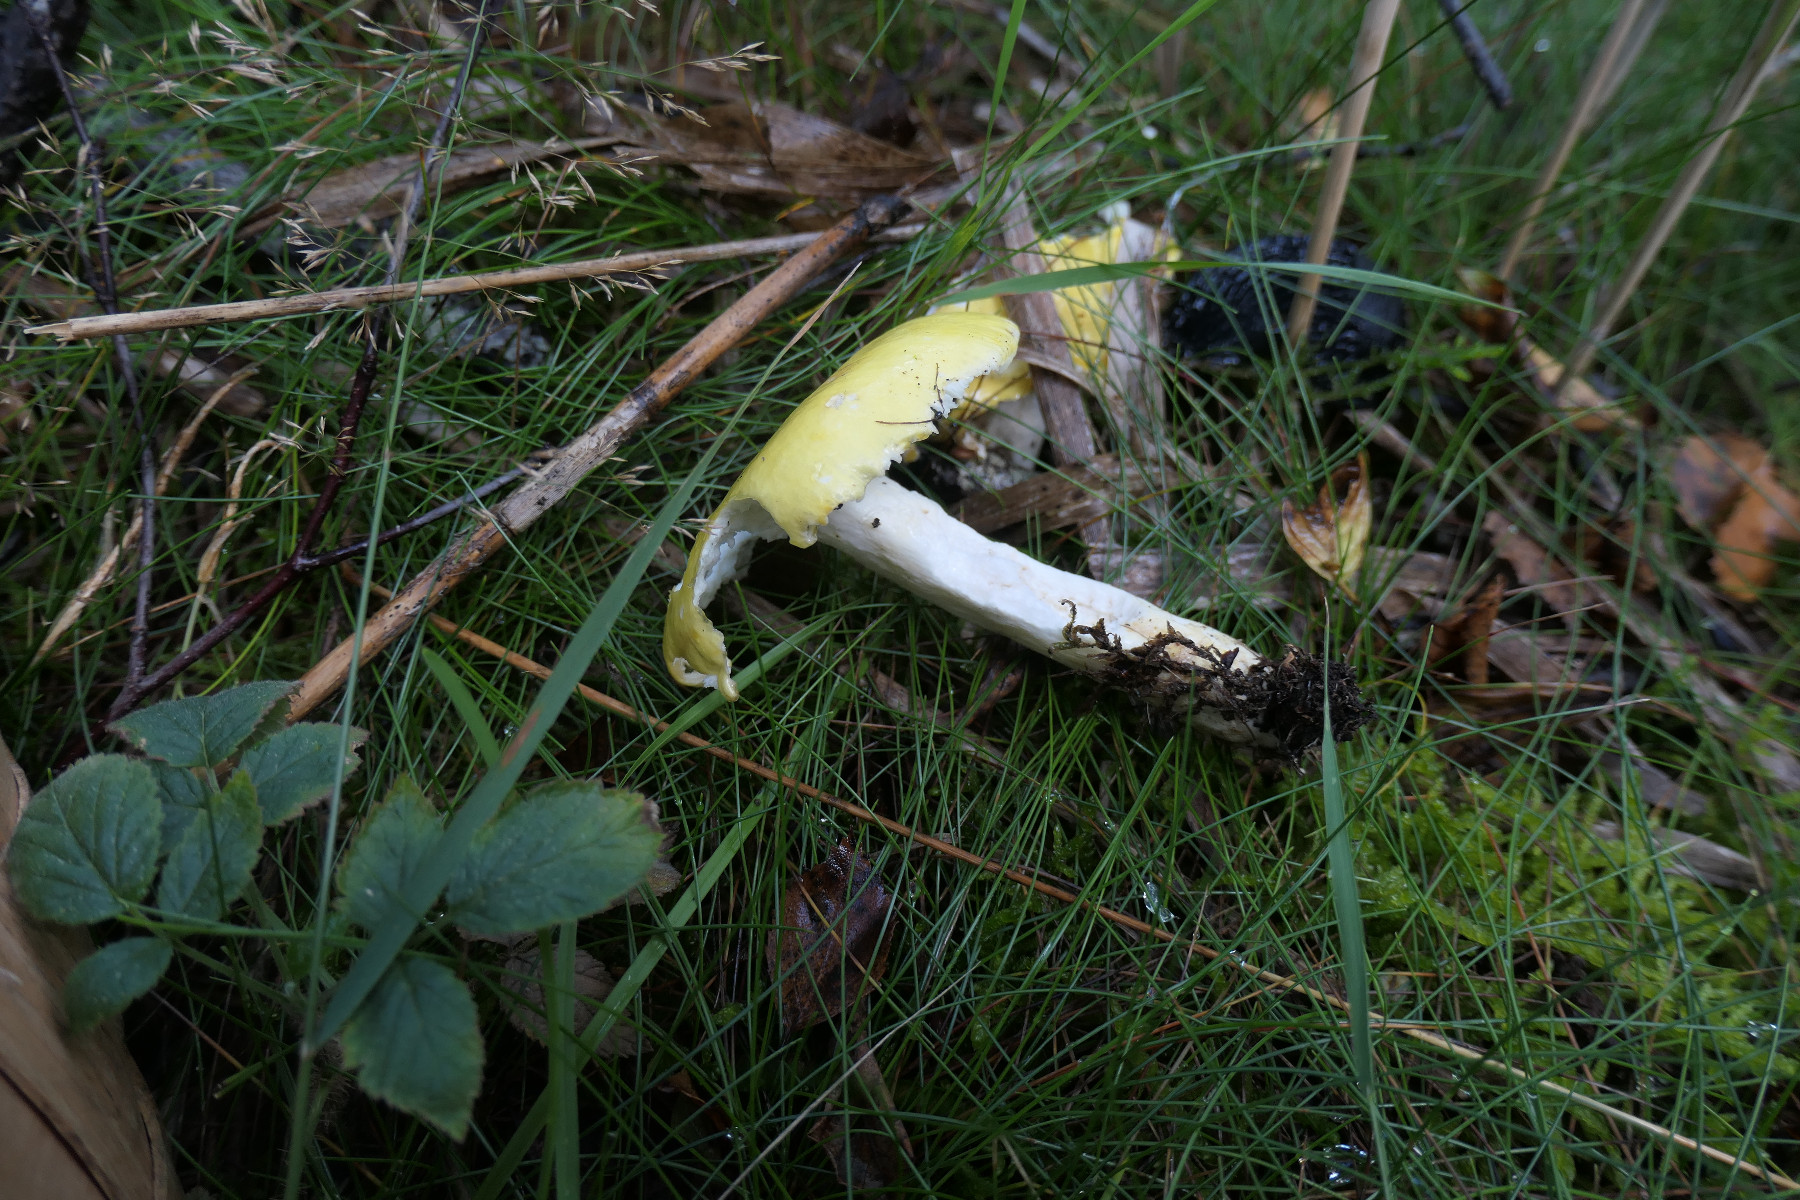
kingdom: Fungi
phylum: Basidiomycota
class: Agaricomycetes
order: Russulales
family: Russulaceae
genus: Russula
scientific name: Russula claroflava
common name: birke-skørhat
